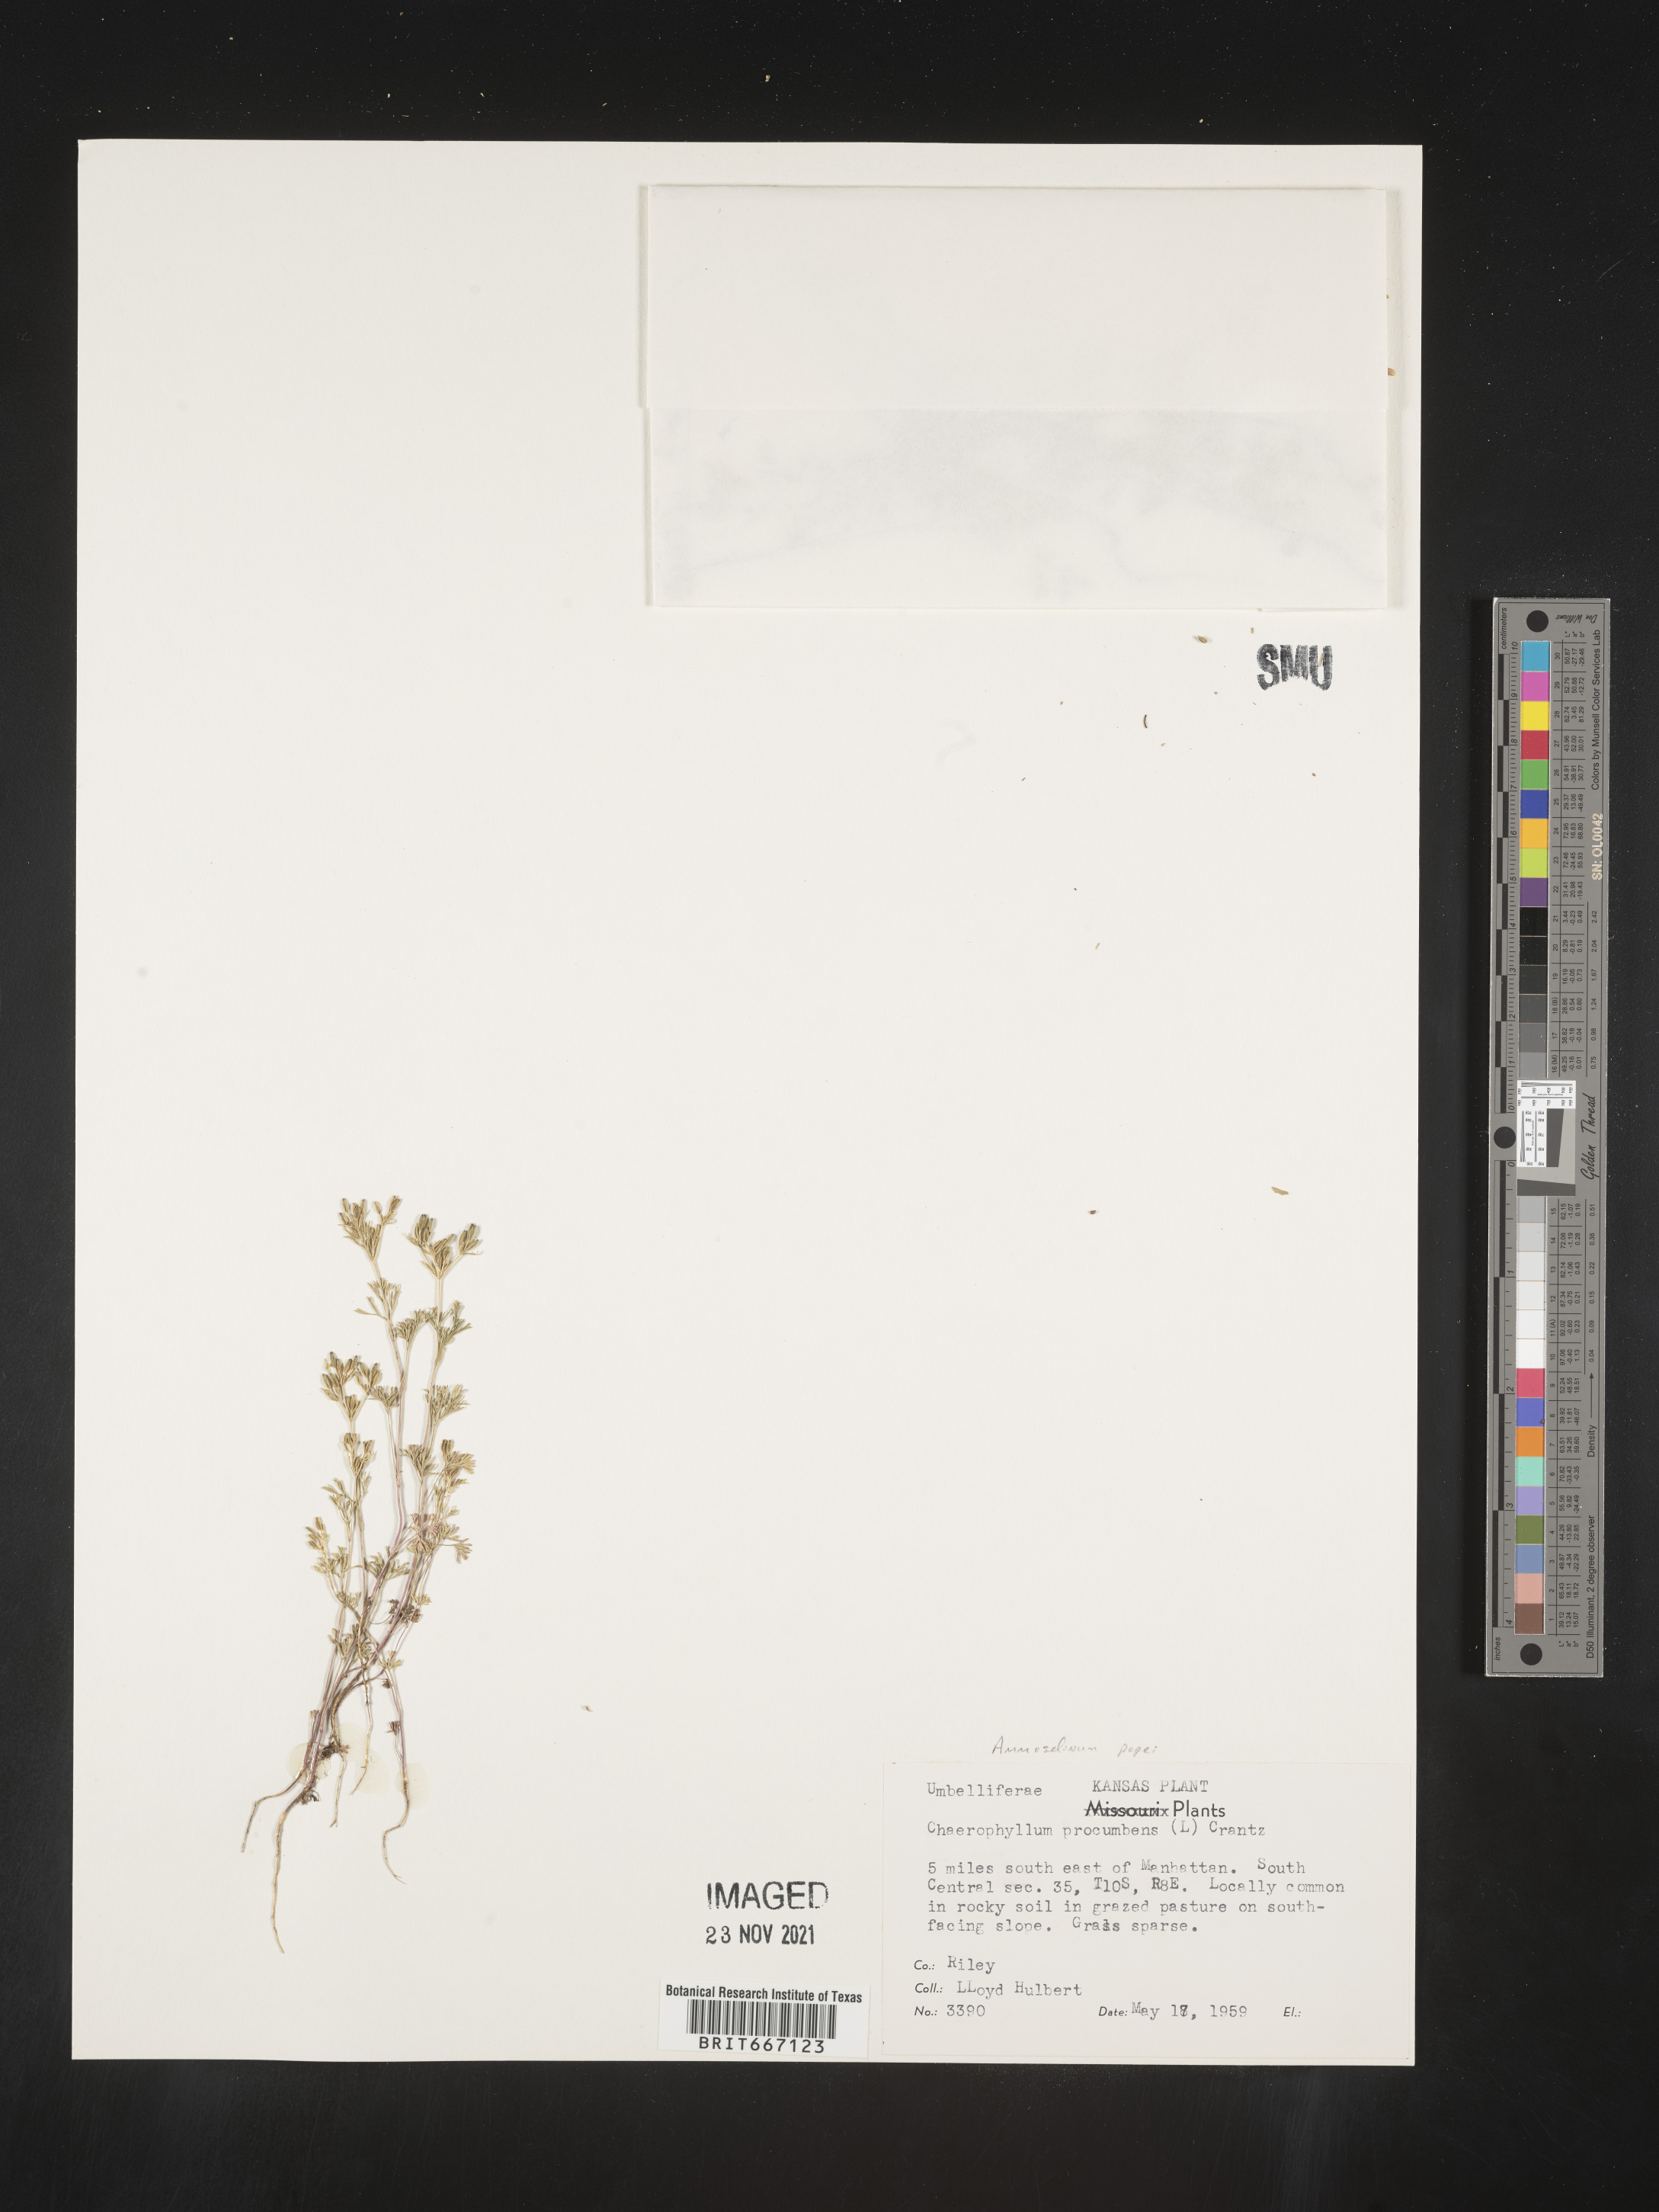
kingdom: Plantae
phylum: Tracheophyta
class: Magnoliopsida
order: Apiales
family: Apiaceae
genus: Ammoselinum
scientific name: Ammoselinum popei
